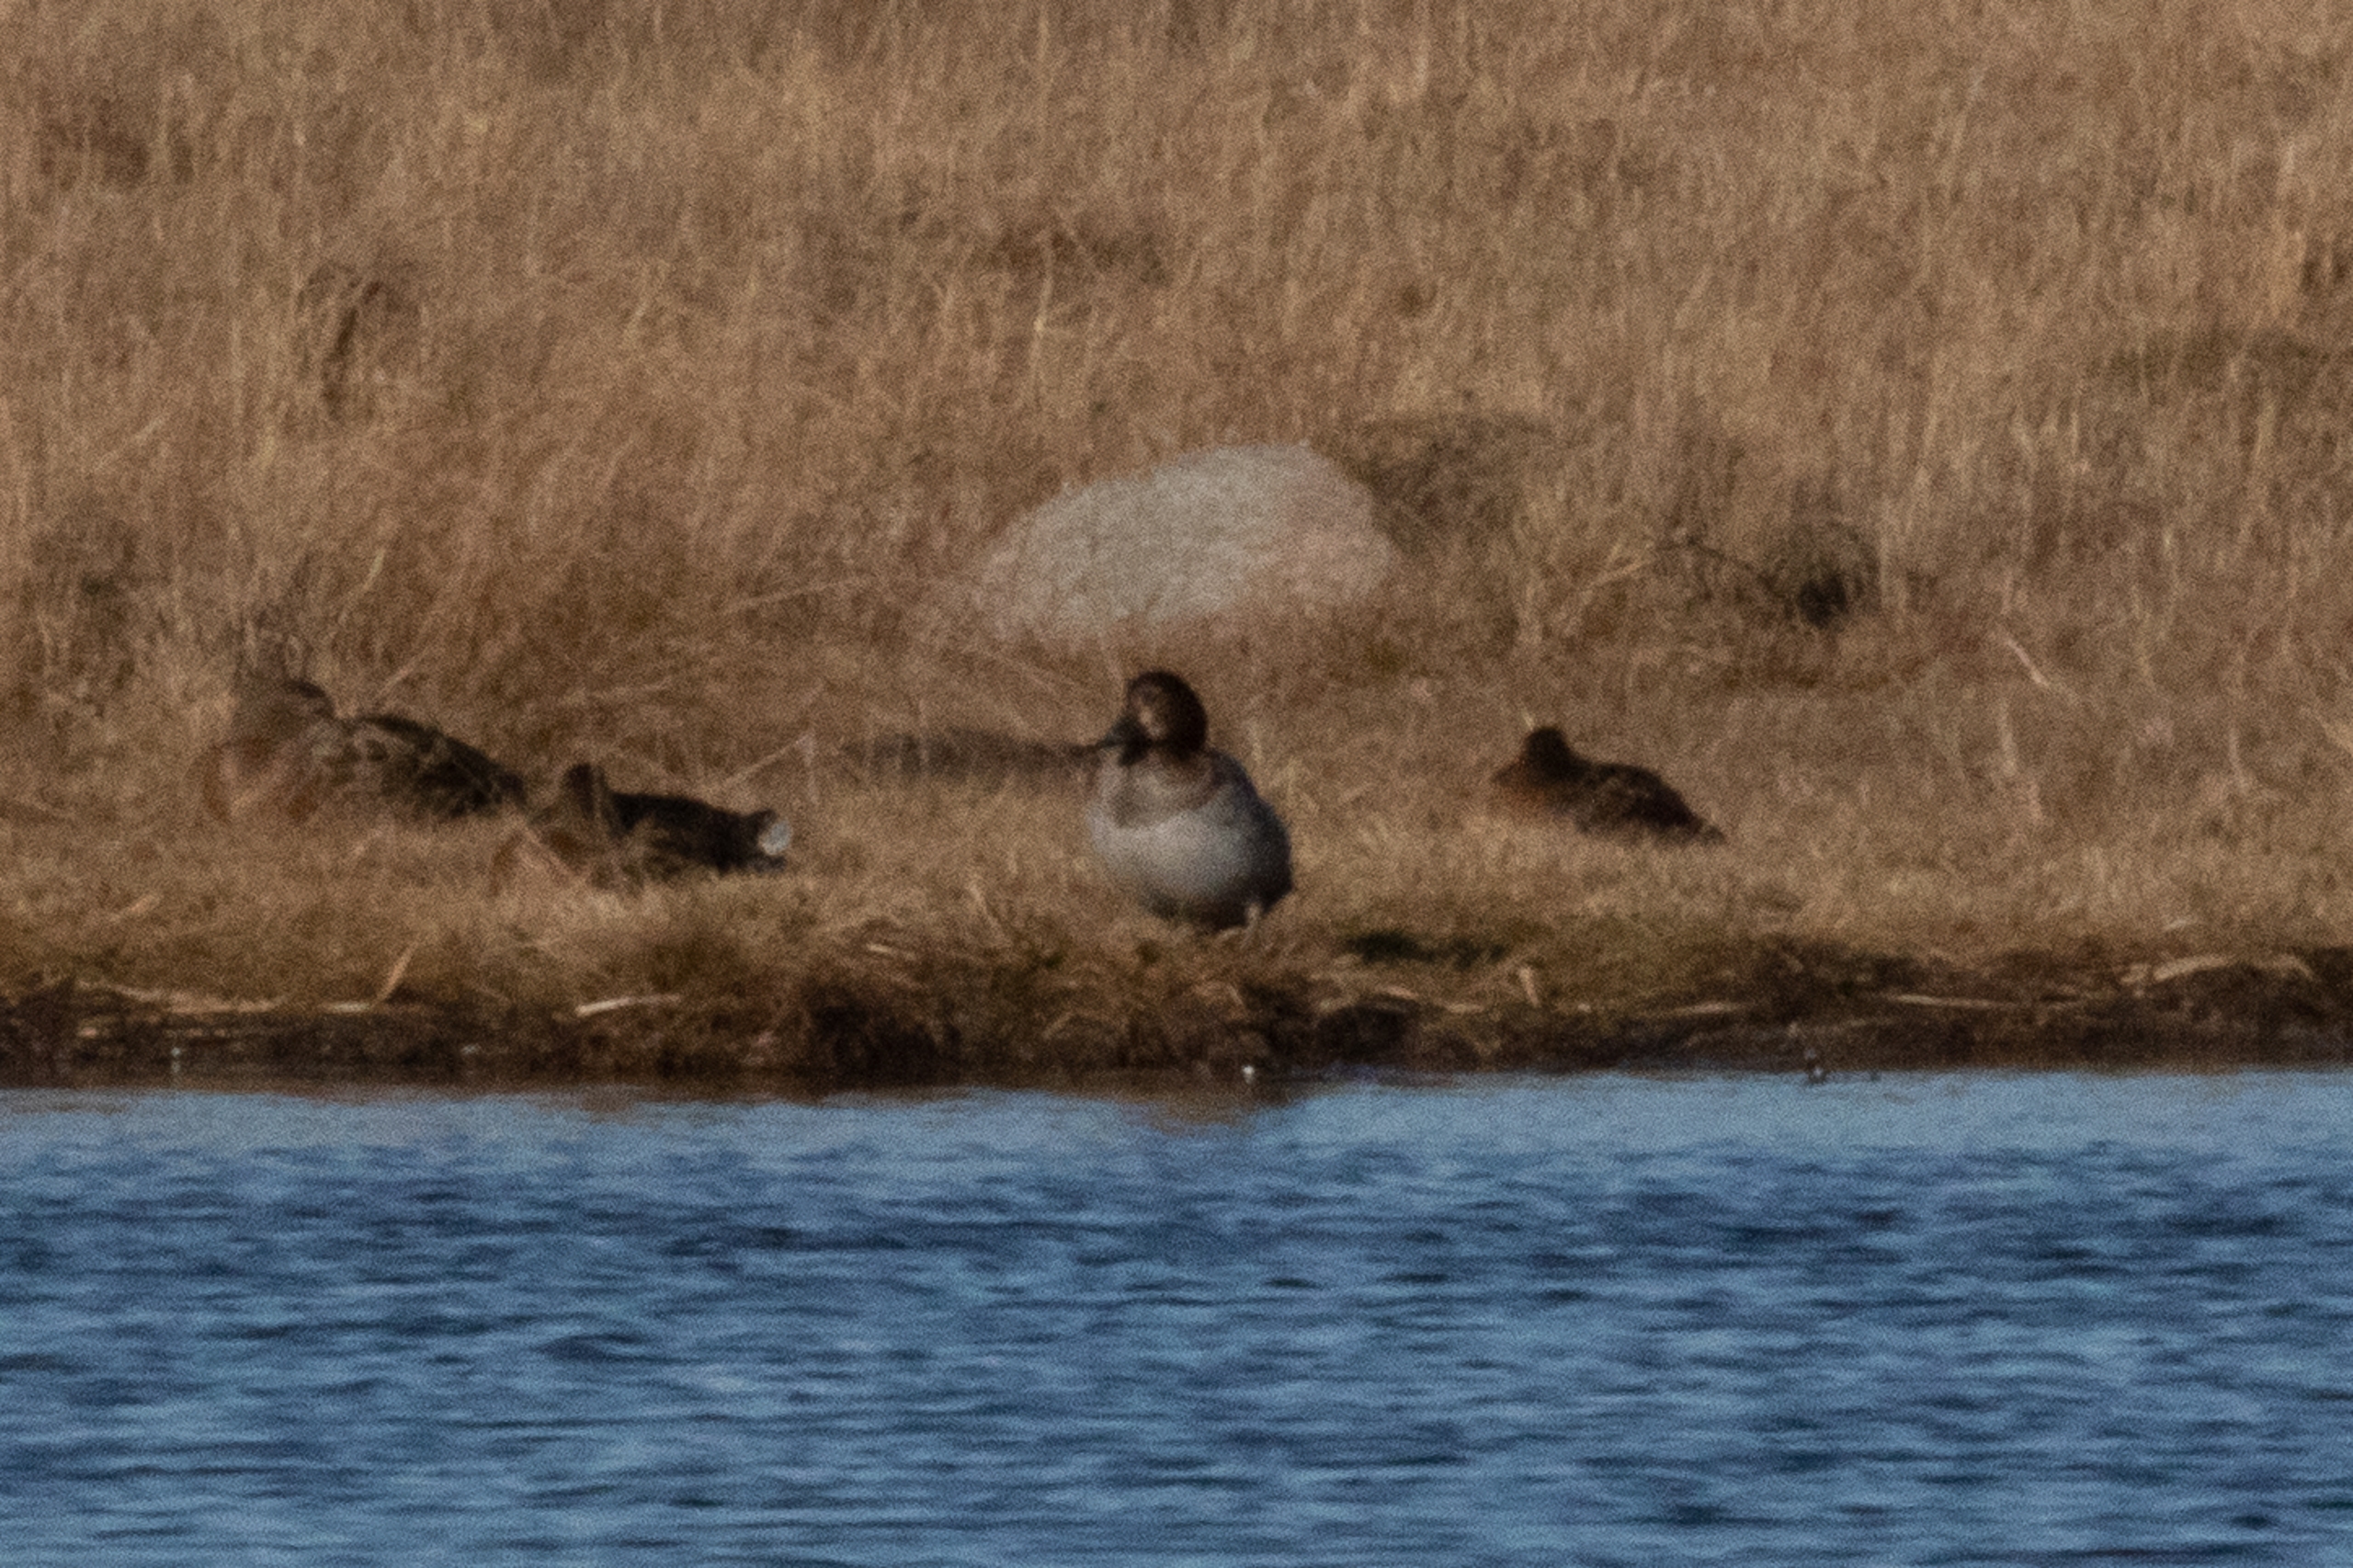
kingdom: Animalia
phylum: Chordata
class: Aves
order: Anseriformes
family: Anatidae
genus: Aythya
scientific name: Aythya ferina
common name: Taffeland
